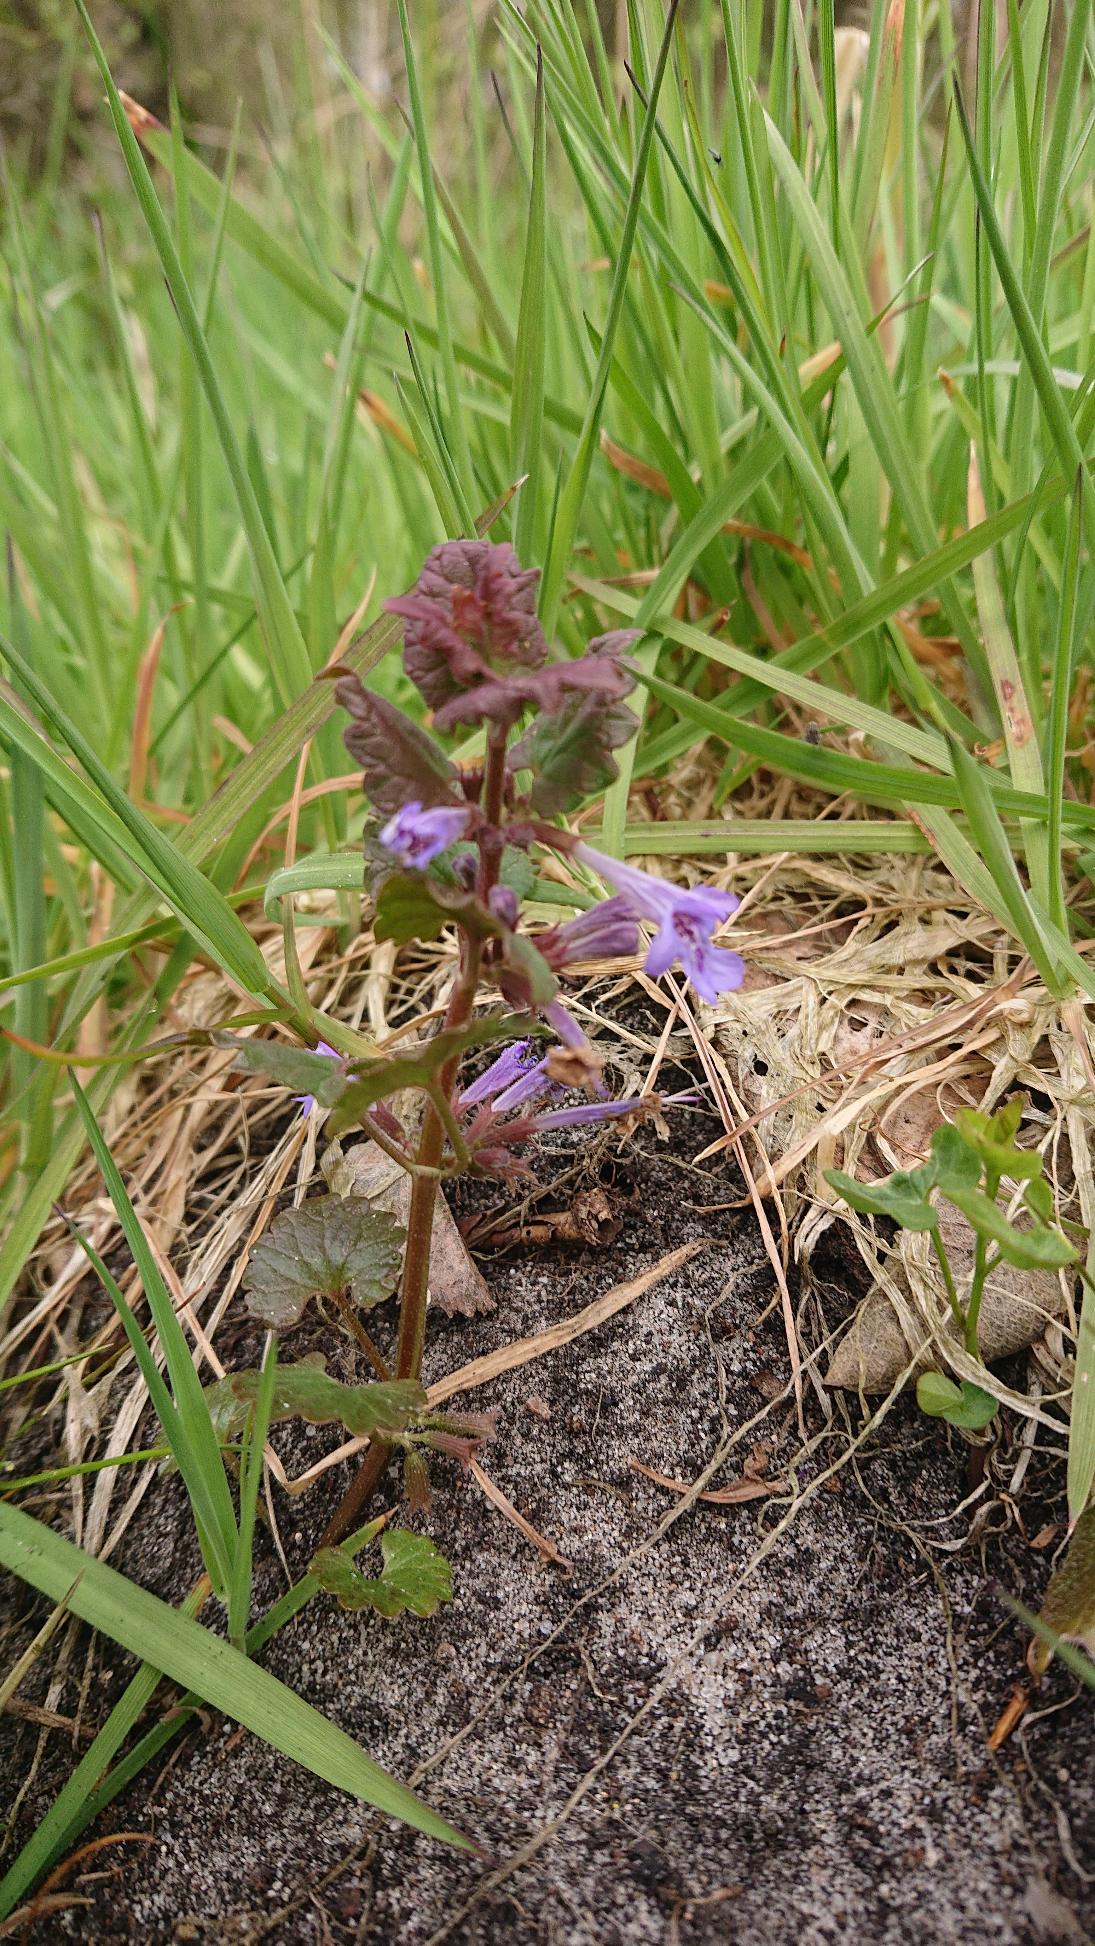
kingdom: Plantae
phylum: Tracheophyta
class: Magnoliopsida
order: Lamiales
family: Lamiaceae
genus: Glechoma
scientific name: Glechoma hederacea
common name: Korsknap
